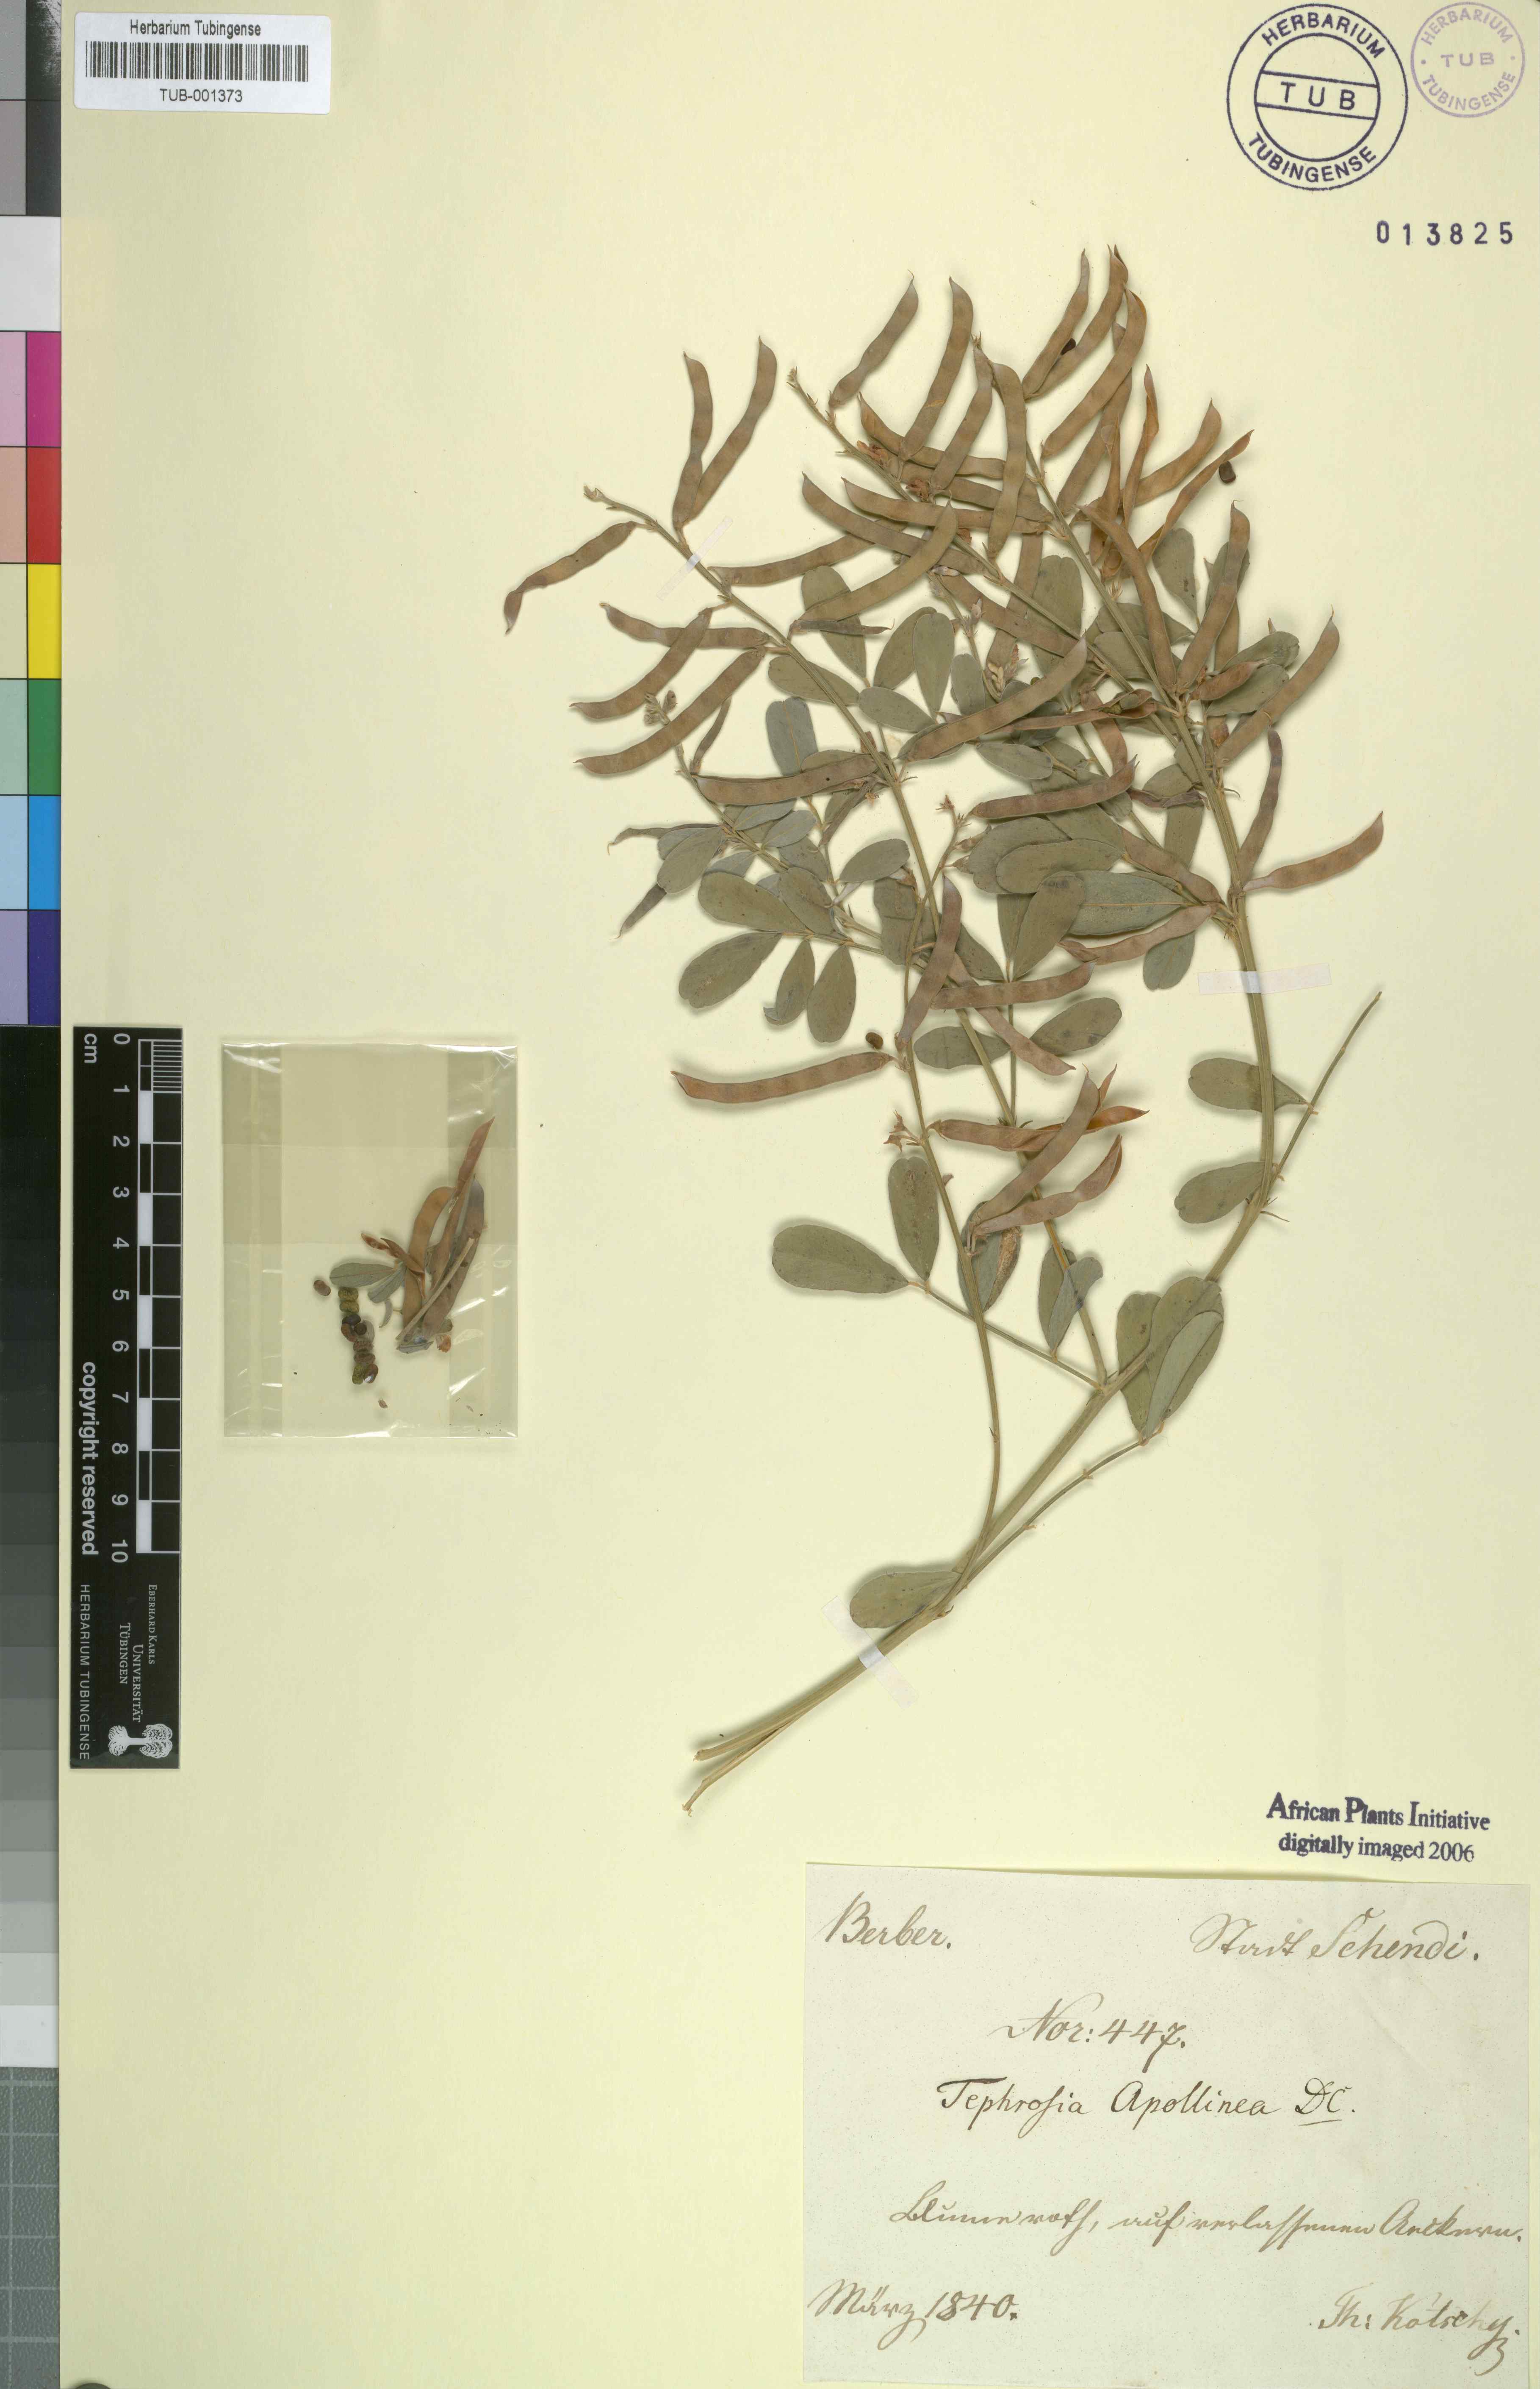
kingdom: Plantae
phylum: Tracheophyta
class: Magnoliopsida
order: Fabales
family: Fabaceae
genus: Tephrosia
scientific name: Tephrosia purpurea
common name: Fishpoison
